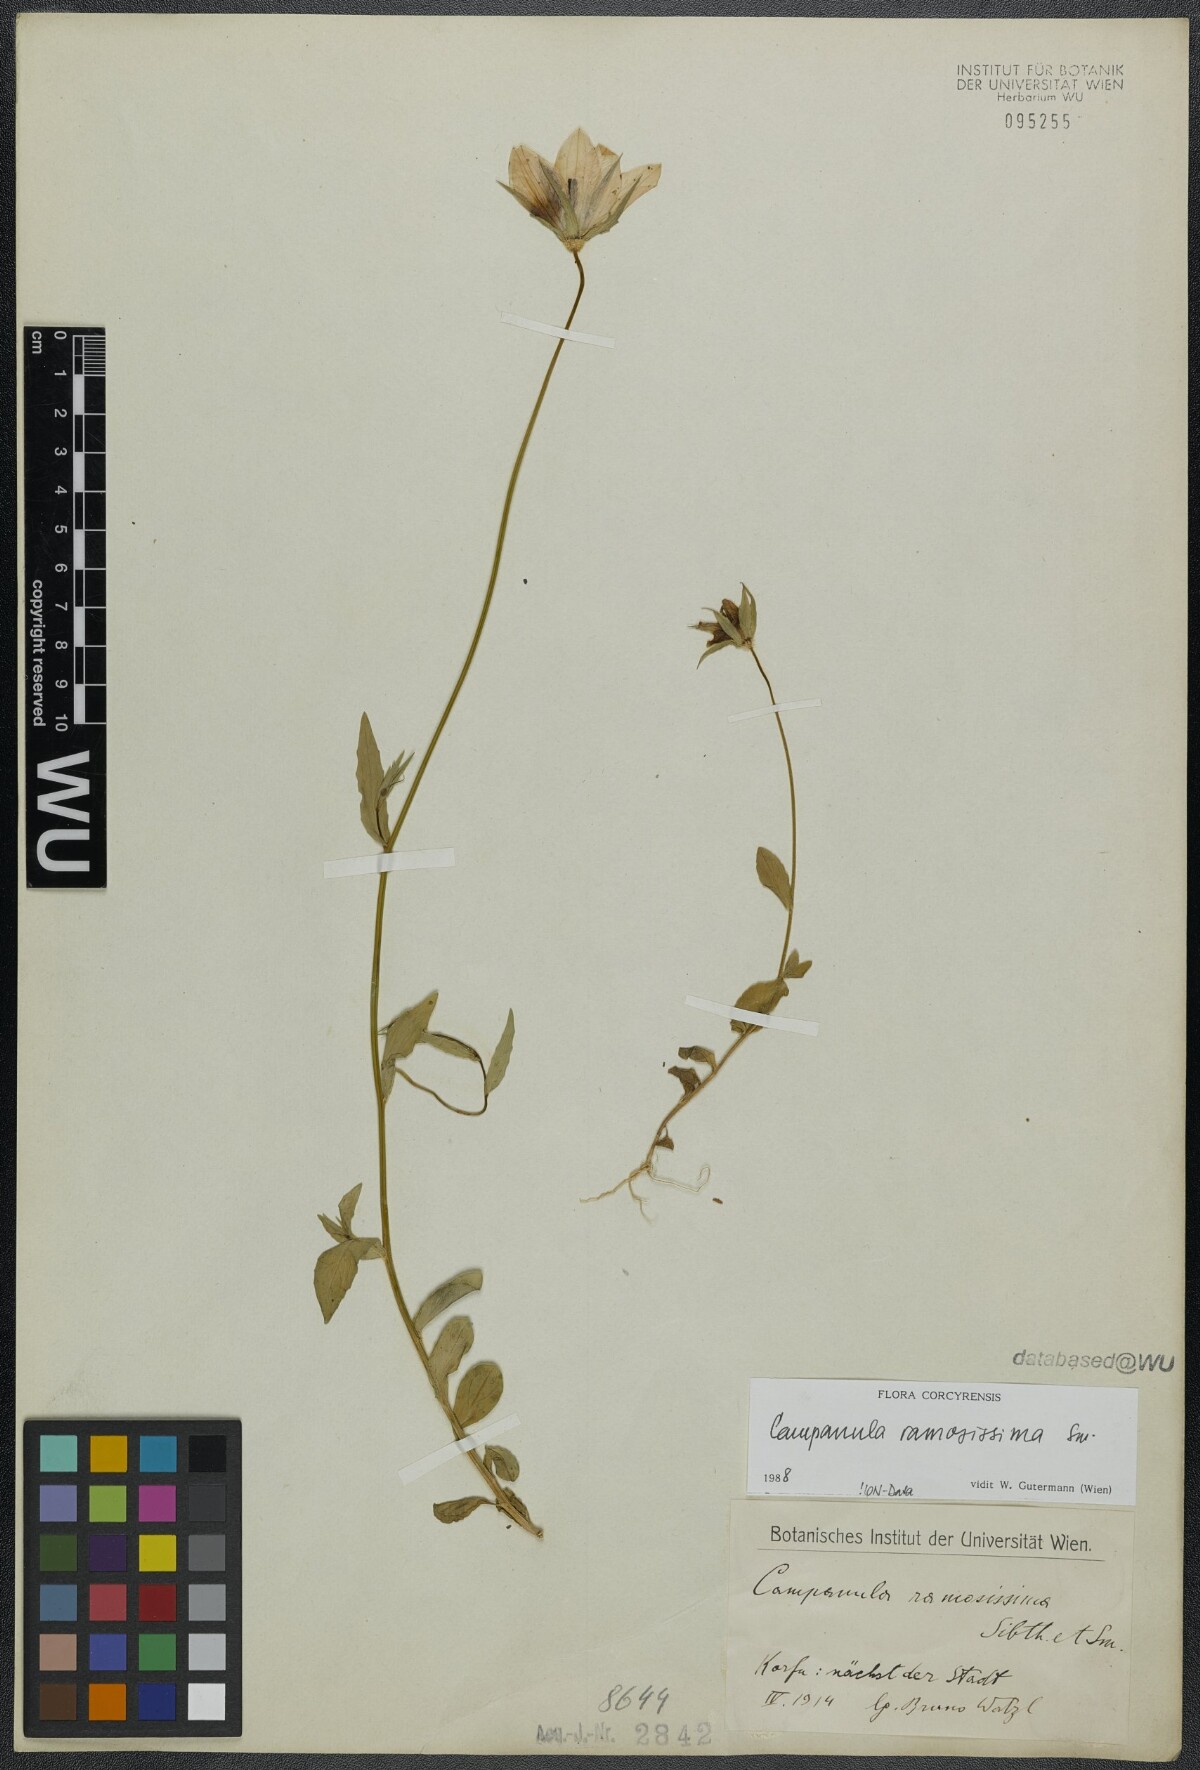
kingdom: Plantae
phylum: Tracheophyta
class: Magnoliopsida
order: Asterales
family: Campanulaceae
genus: Campanula
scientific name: Campanula ramosissima
